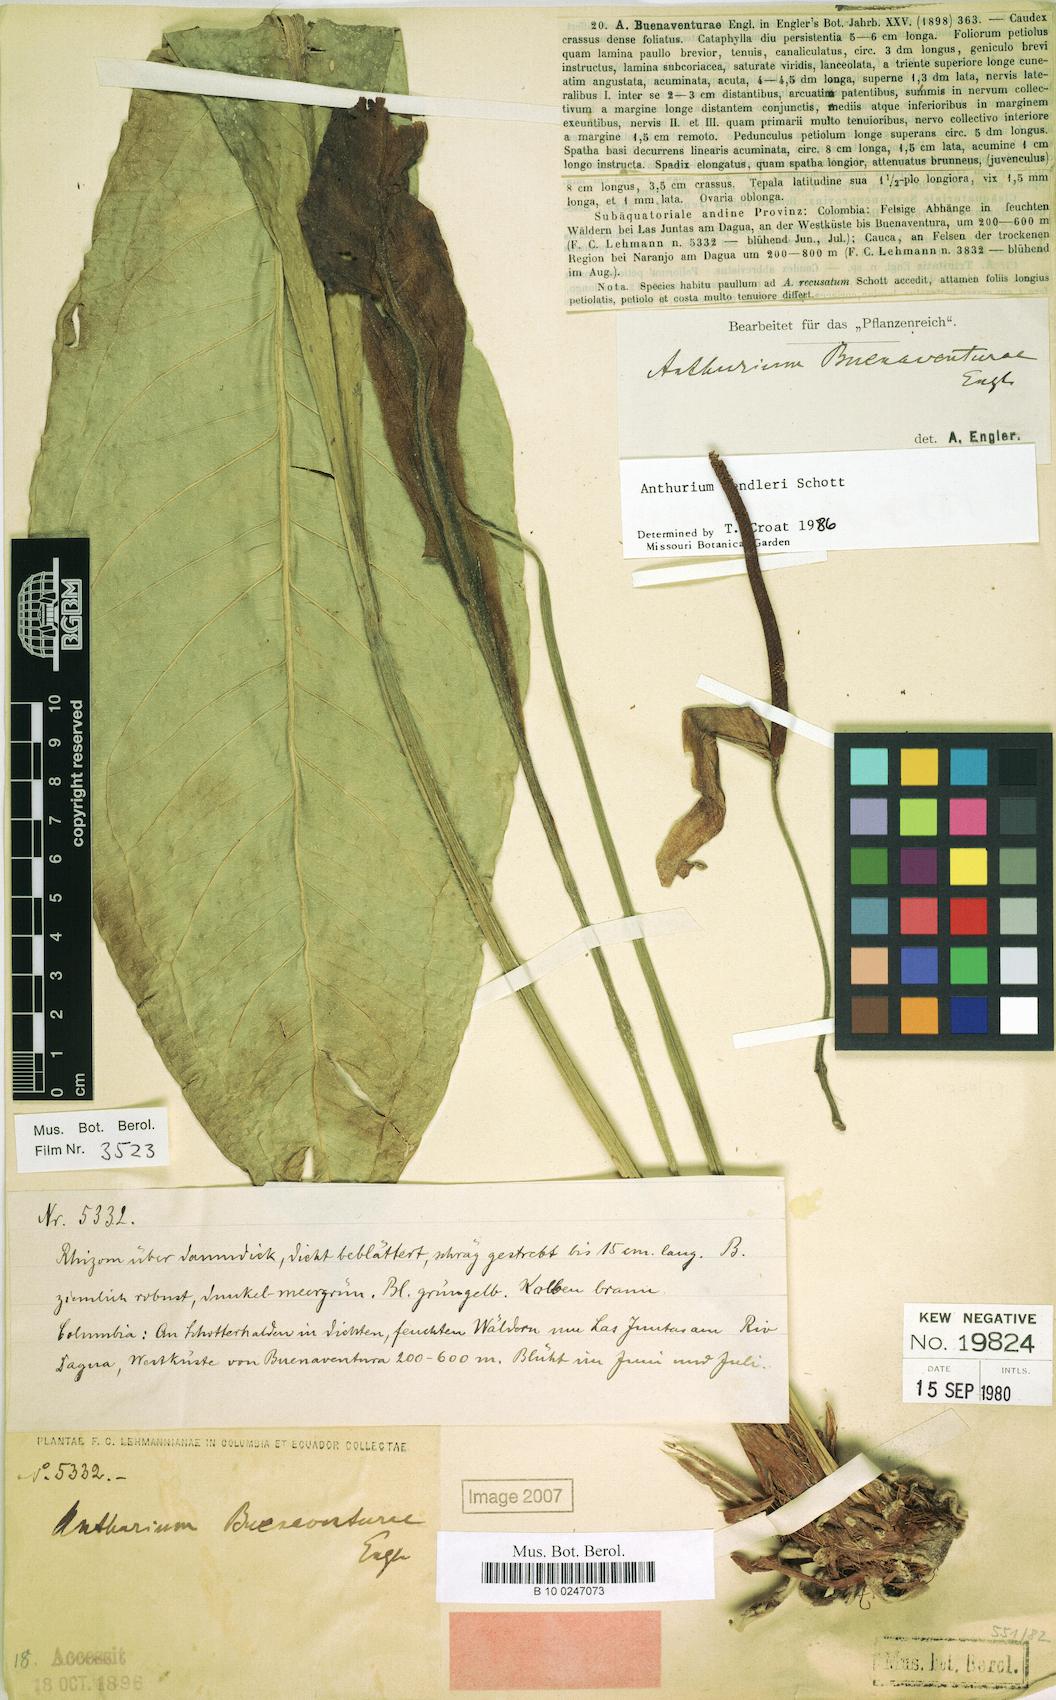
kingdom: Plantae
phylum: Tracheophyta
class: Liliopsida
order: Alismatales
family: Araceae
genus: Anthurium
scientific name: Anthurium fendleri
